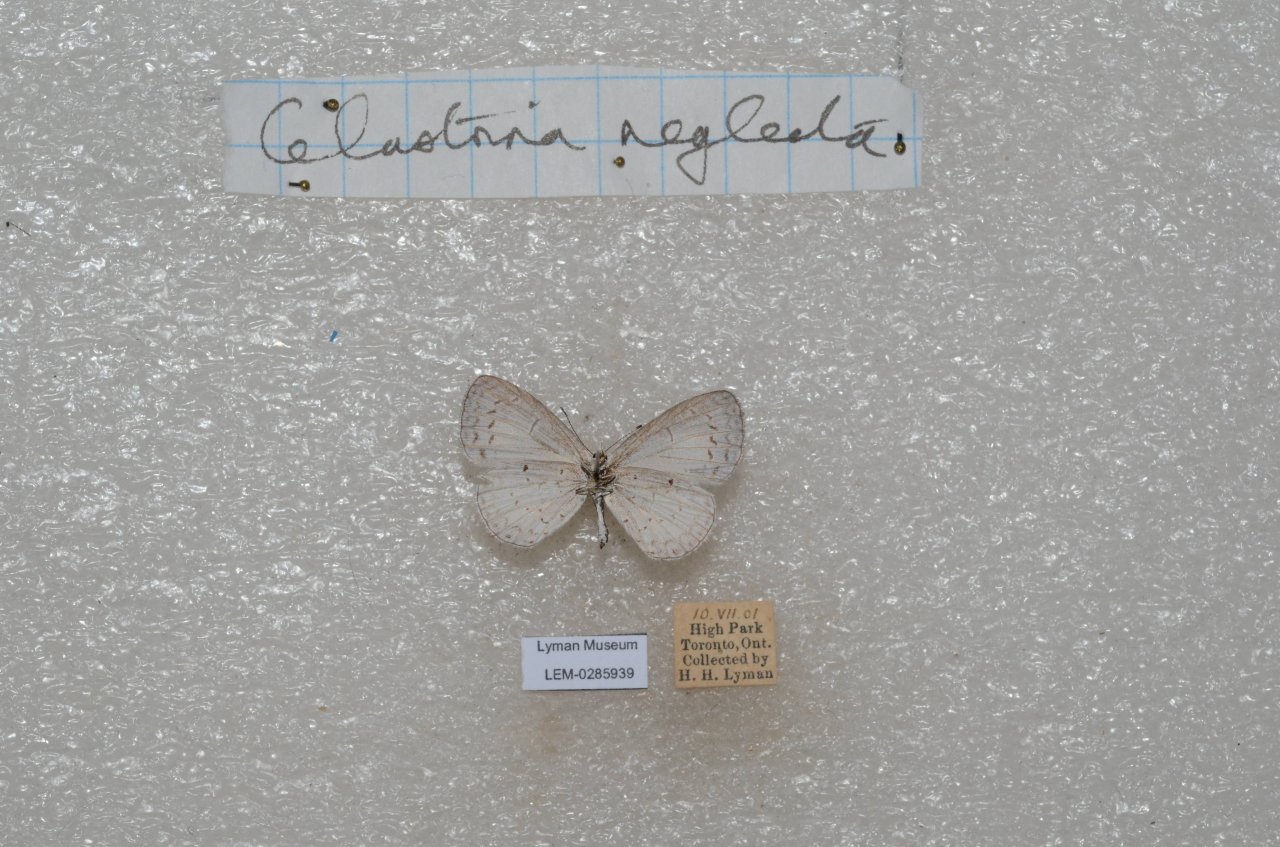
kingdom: Animalia
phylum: Arthropoda
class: Insecta
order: Lepidoptera
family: Lycaenidae
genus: Celastrina
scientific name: Celastrina lucia
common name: Northern Spring Azure
